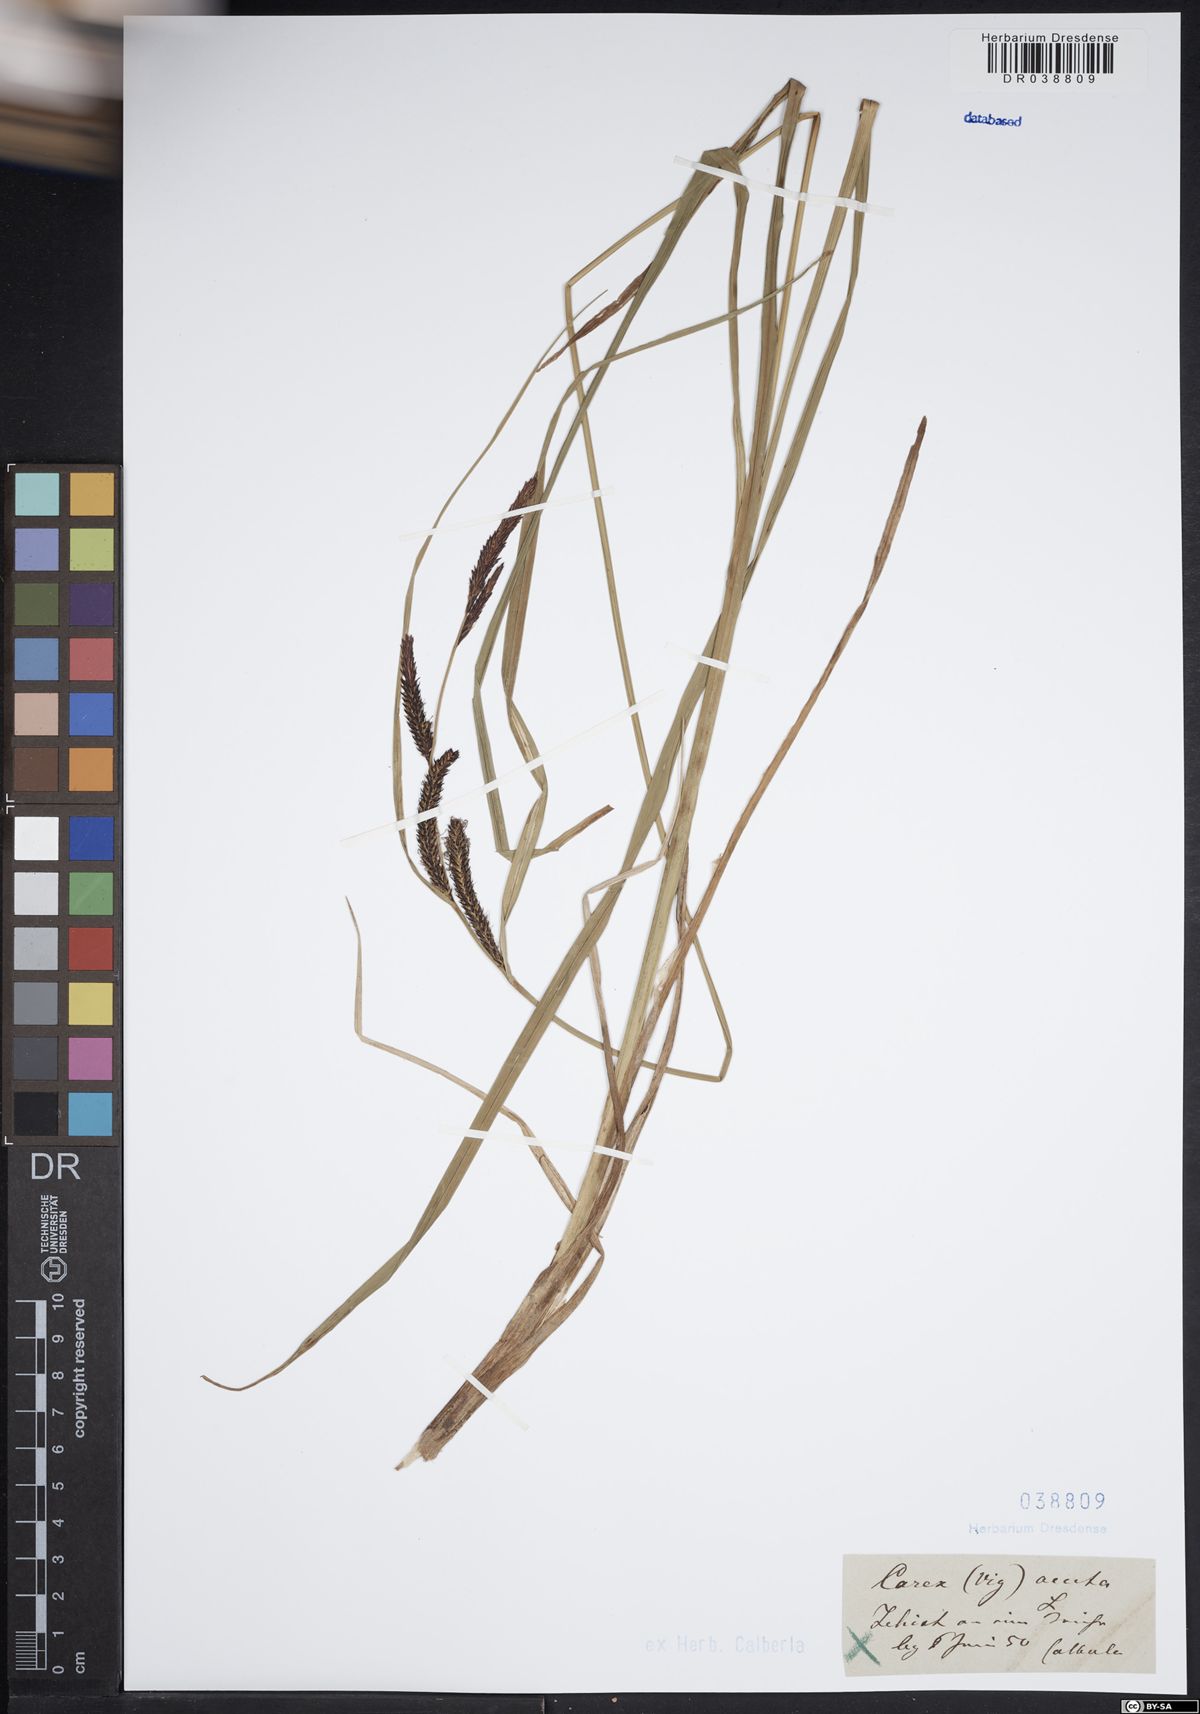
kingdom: Plantae
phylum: Tracheophyta
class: Liliopsida
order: Poales
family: Cyperaceae
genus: Carex
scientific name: Carex acuta
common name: Slender tufted-sedge
